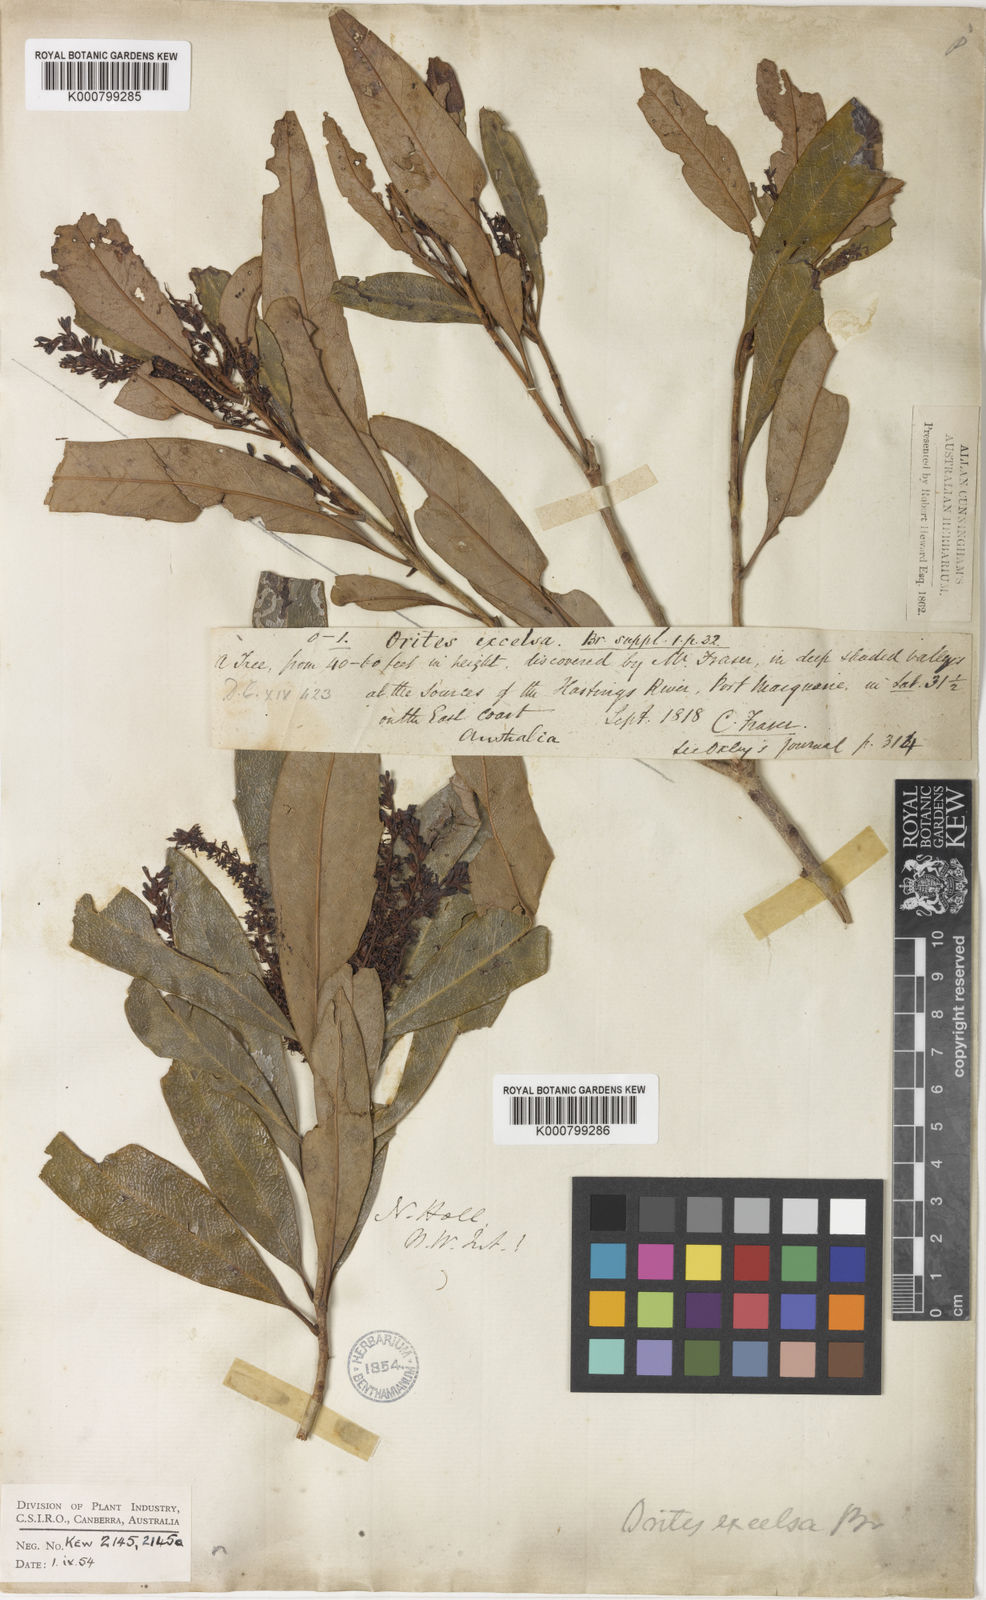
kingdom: Plantae
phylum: Tracheophyta
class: Magnoliopsida
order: Proteales
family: Proteaceae
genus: Orites
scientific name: Orites excelsus
